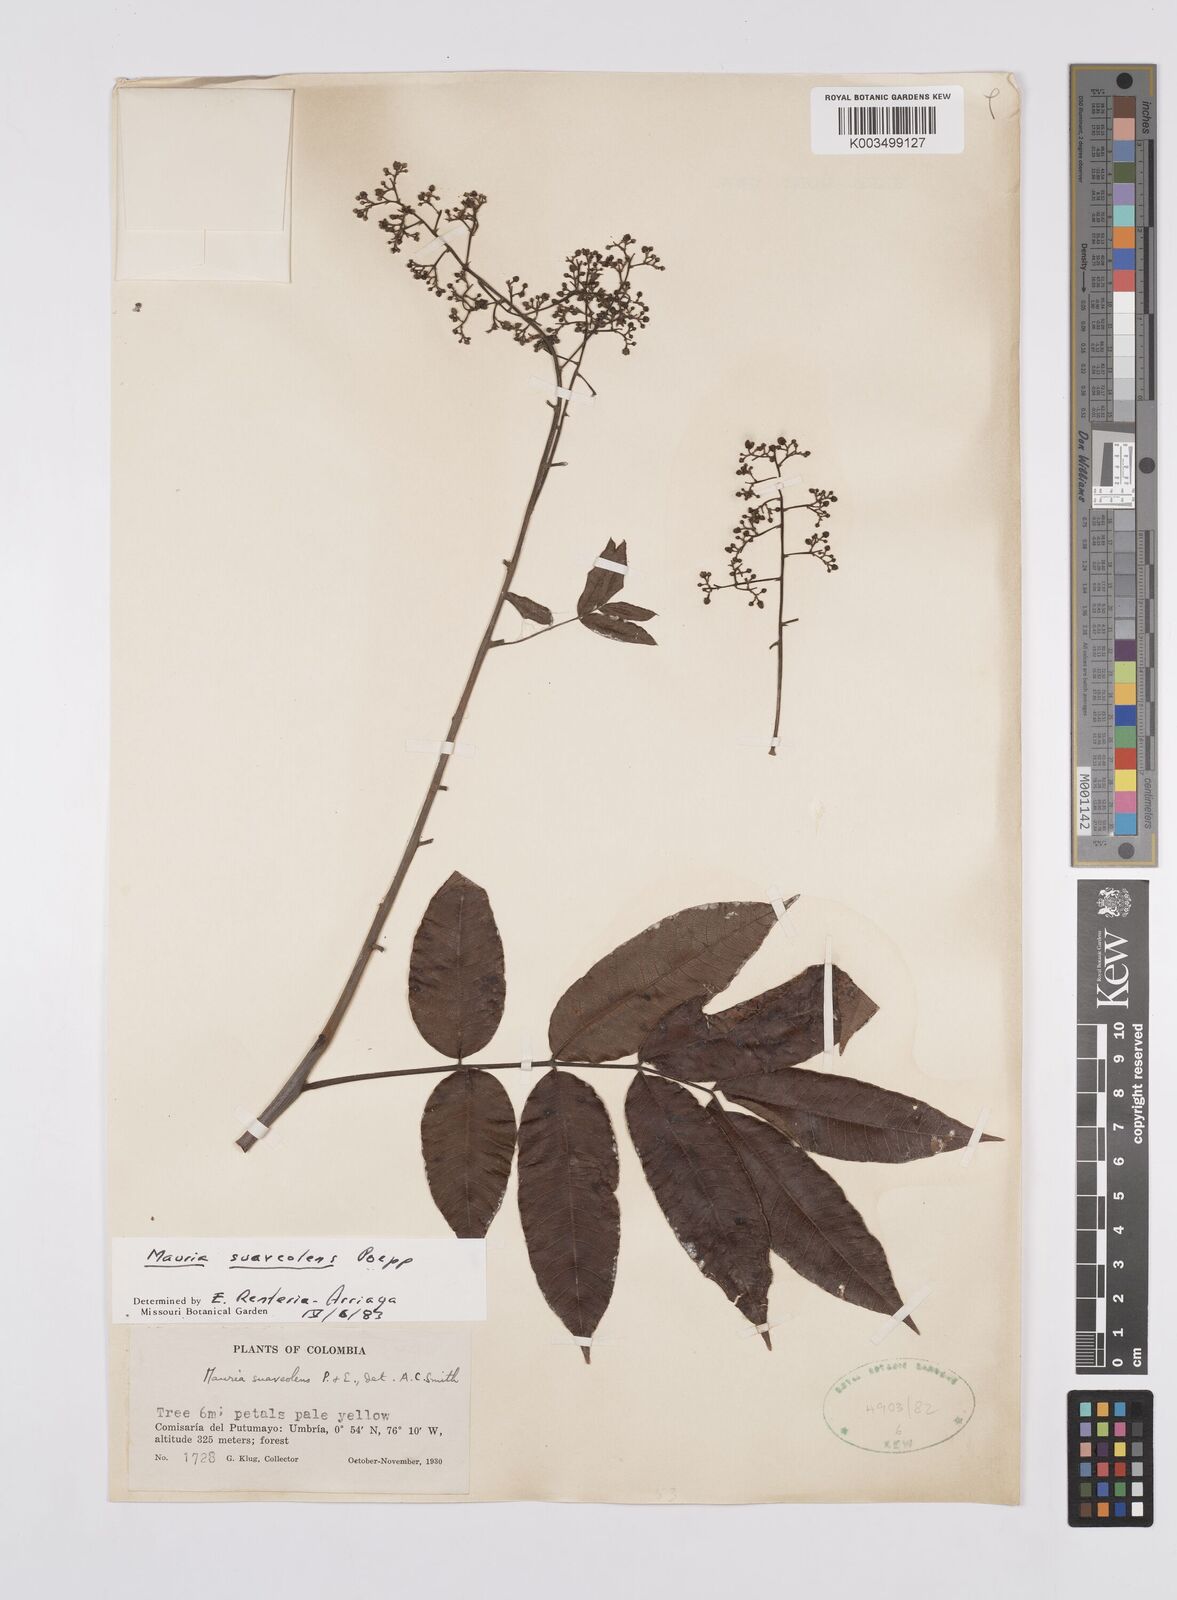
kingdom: Plantae
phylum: Tracheophyta
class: Magnoliopsida
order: Sapindales
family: Anacardiaceae
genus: Mauria
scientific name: Mauria heterophylla
